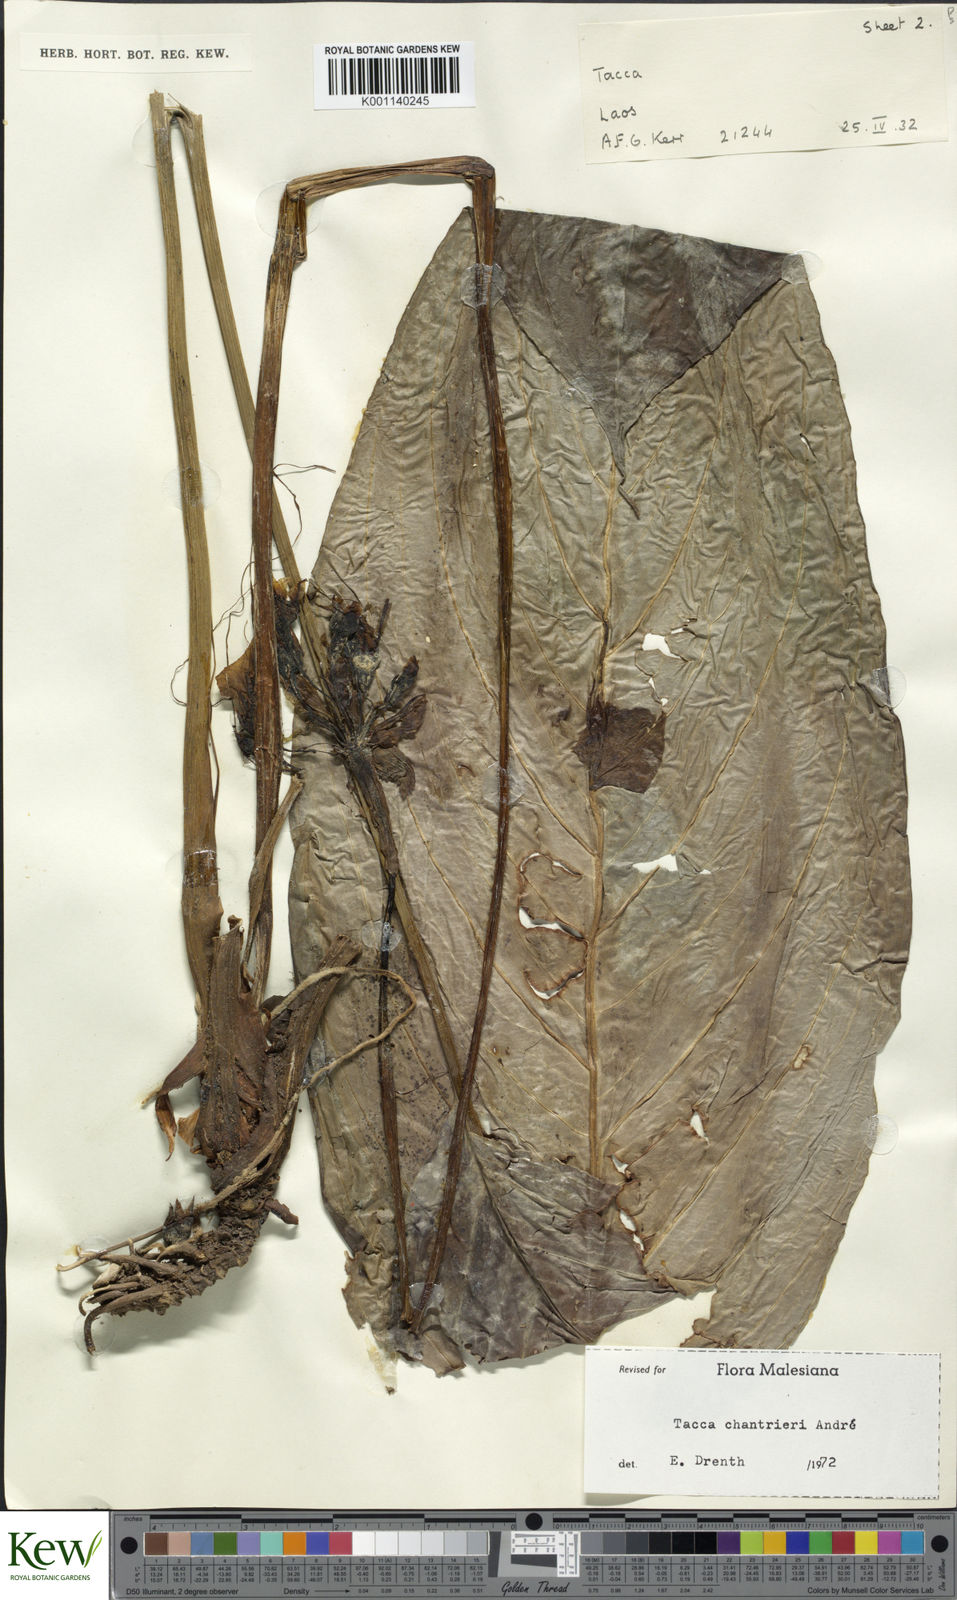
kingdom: Plantae
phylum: Tracheophyta
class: Liliopsida
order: Dioscoreales
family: Dioscoreaceae
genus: Tacca
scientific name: Tacca
